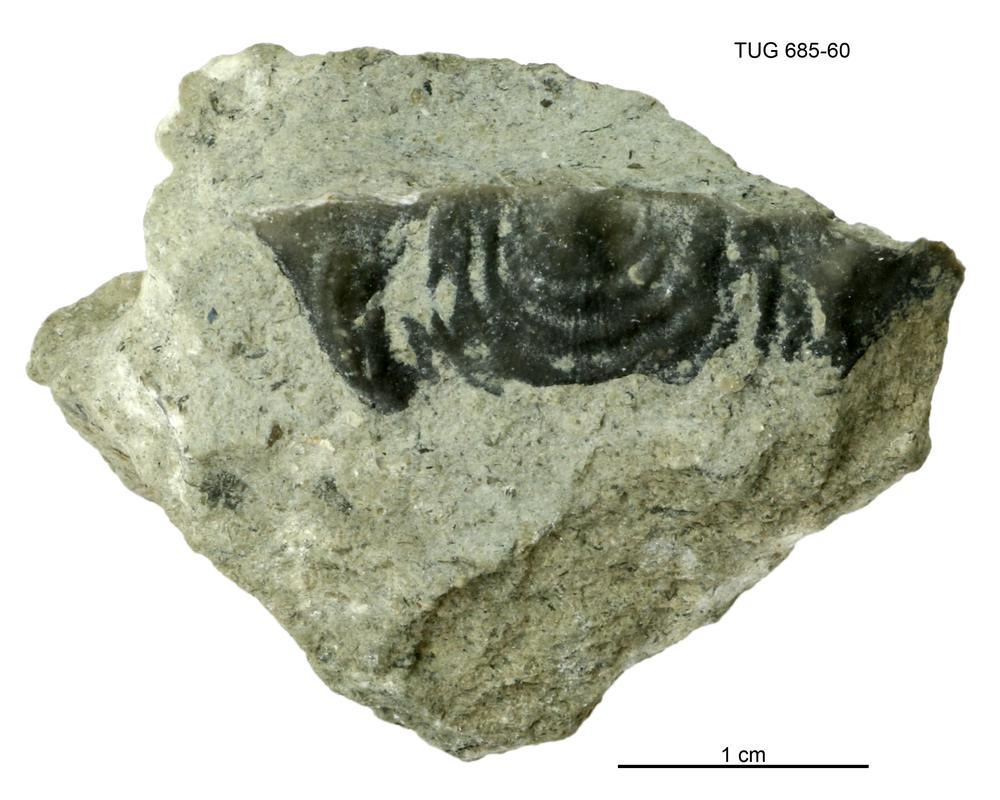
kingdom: Animalia
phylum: Brachiopoda
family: Strophomenidae
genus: Leptaena
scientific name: Leptaena Similoleptaena paucirugata
